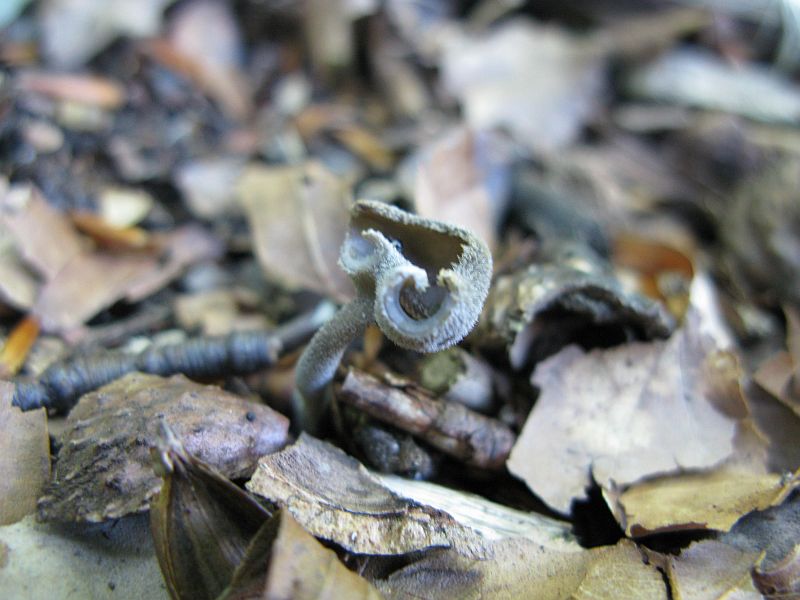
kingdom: Fungi
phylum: Ascomycota
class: Pezizomycetes
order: Pezizales
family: Helvellaceae
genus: Helvella
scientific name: Helvella macropus
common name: højstokket foldhat
